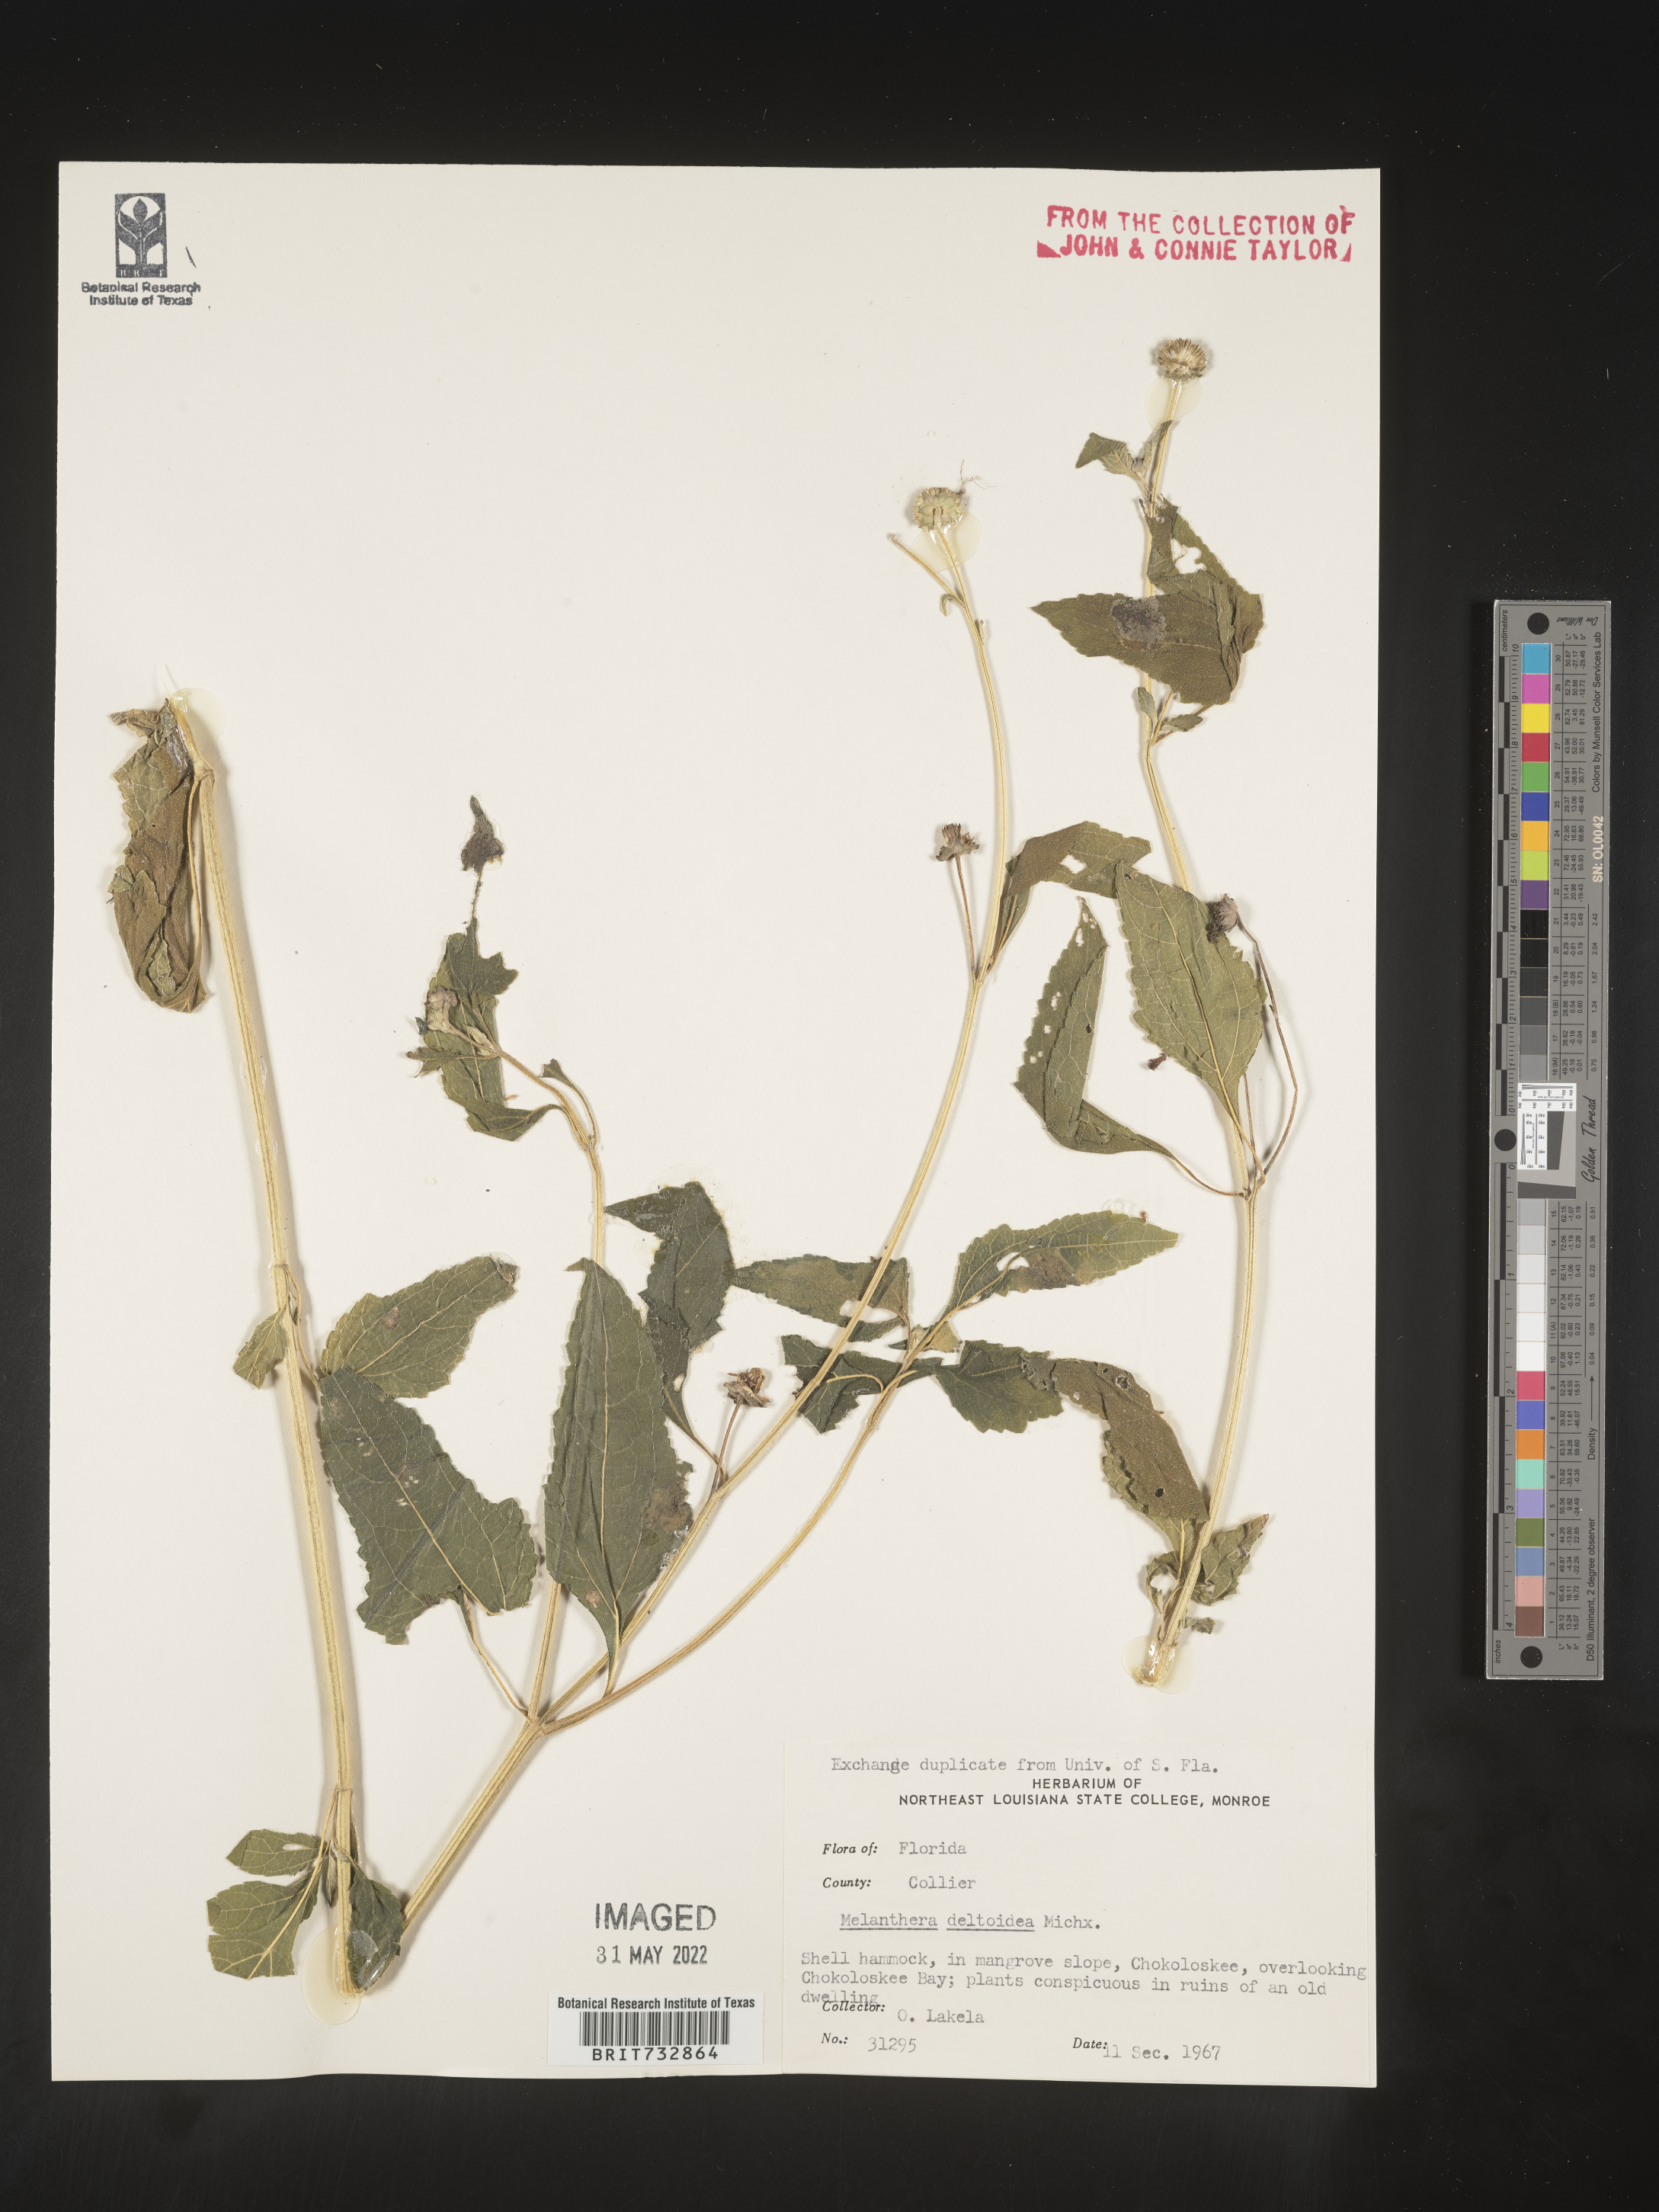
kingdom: Plantae
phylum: Tracheophyta
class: Magnoliopsida
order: Asterales
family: Asteraceae
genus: Melanthera
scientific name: Melanthera nivea
